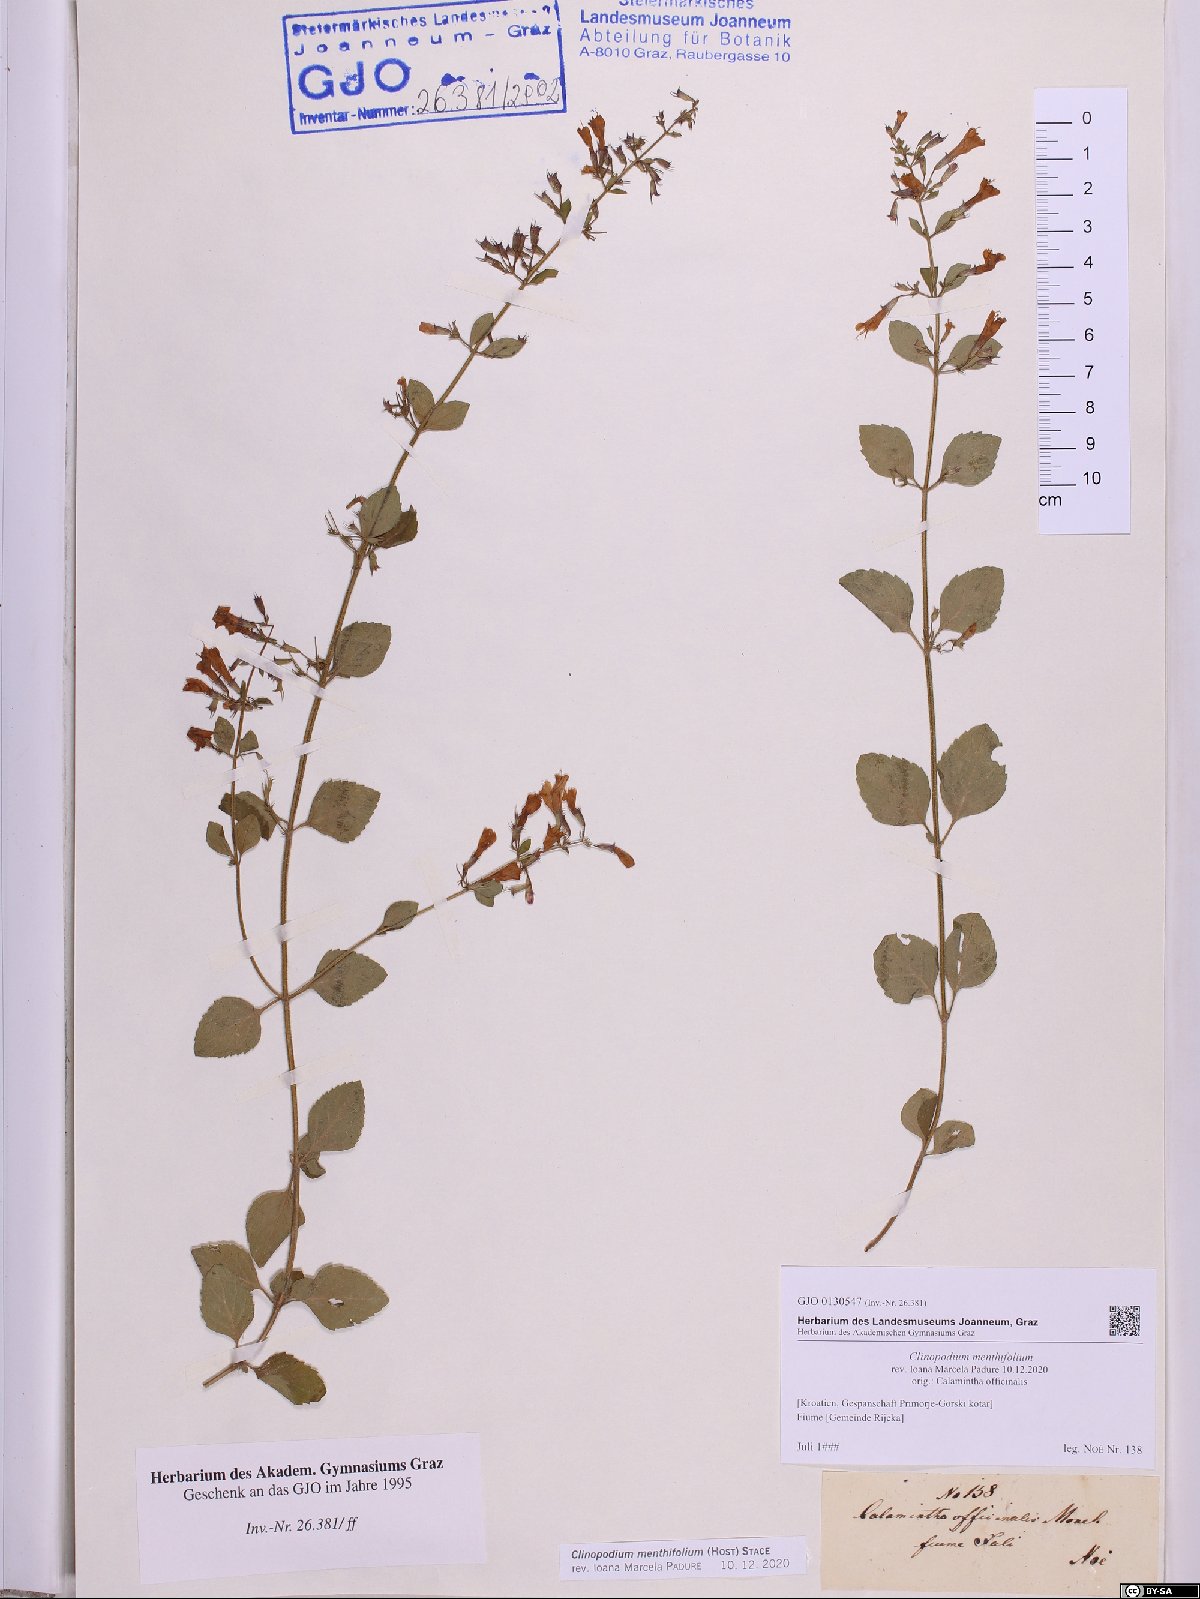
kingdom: Plantae
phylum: Tracheophyta
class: Magnoliopsida
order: Lamiales
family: Lamiaceae
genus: Clinopodium
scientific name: Clinopodium menthifolium
